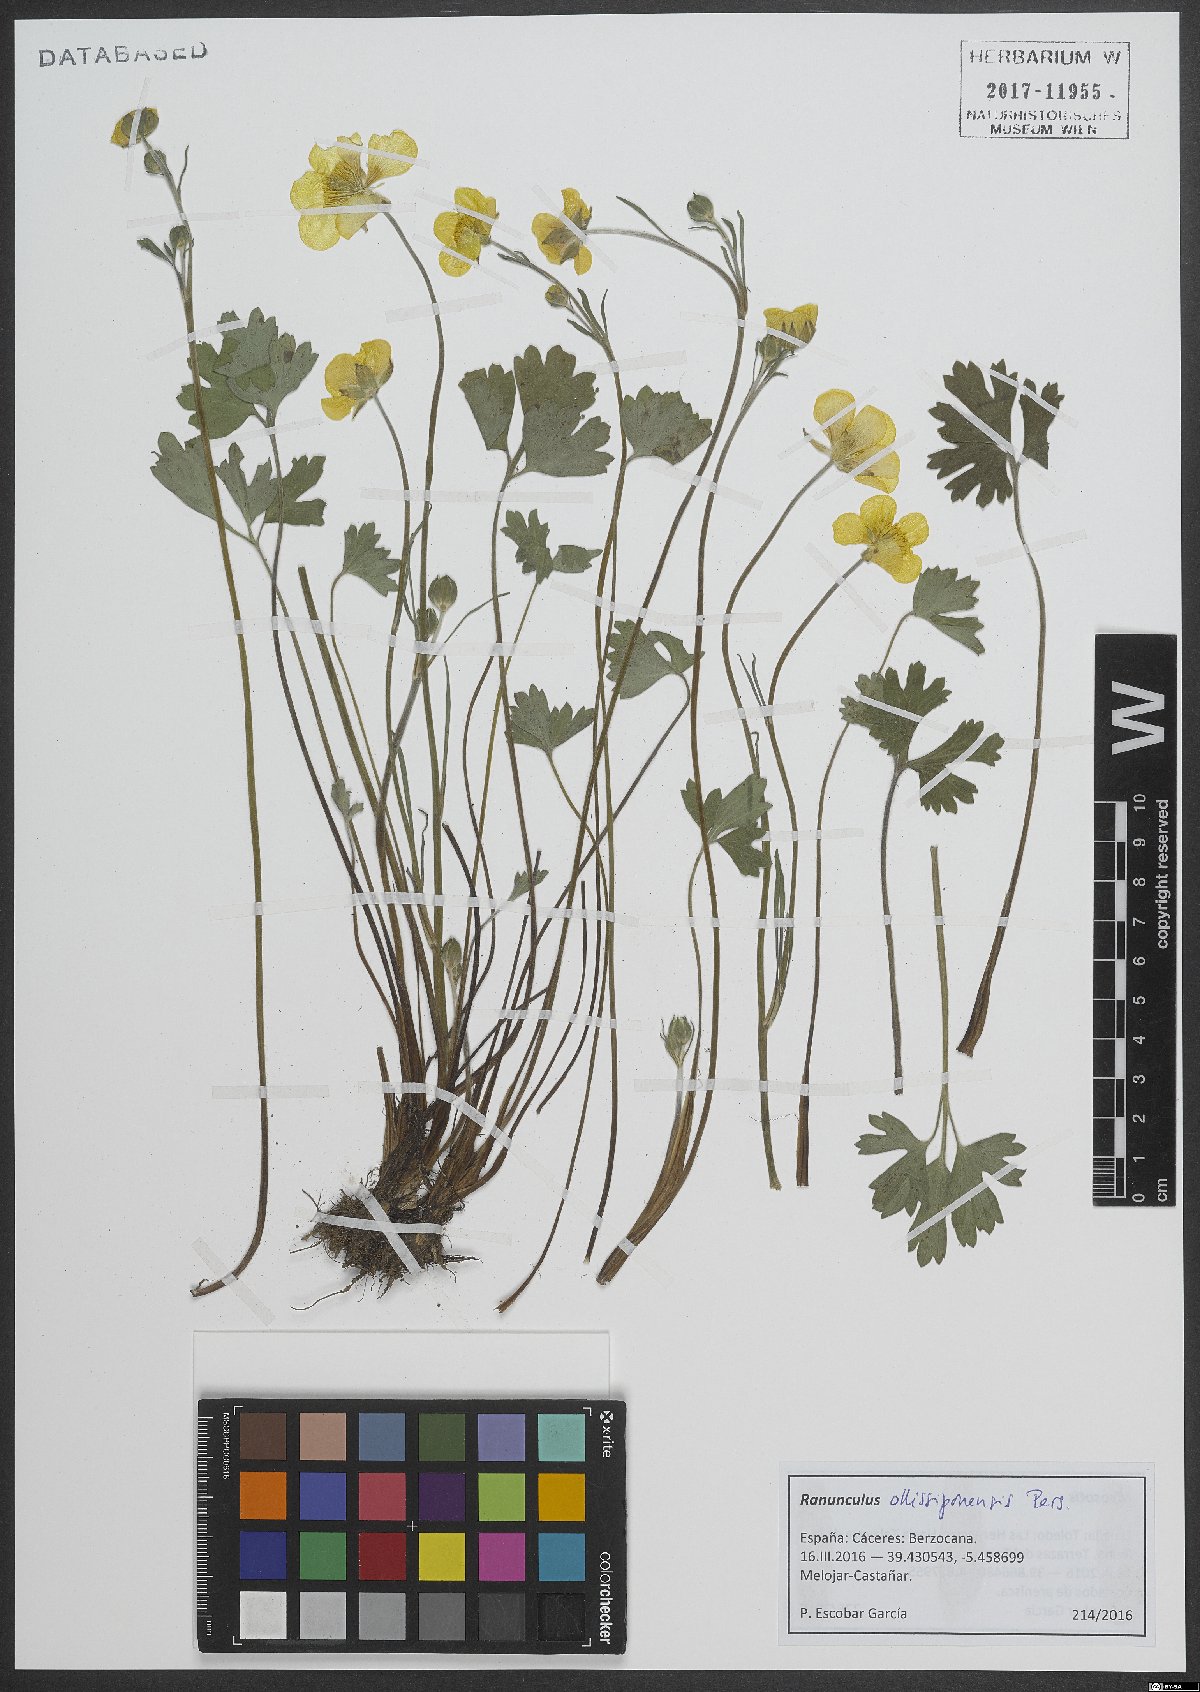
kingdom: Plantae
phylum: Tracheophyta
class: Magnoliopsida
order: Ranunculales
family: Ranunculaceae
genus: Ranunculus
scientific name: Ranunculus ollissiponensis
